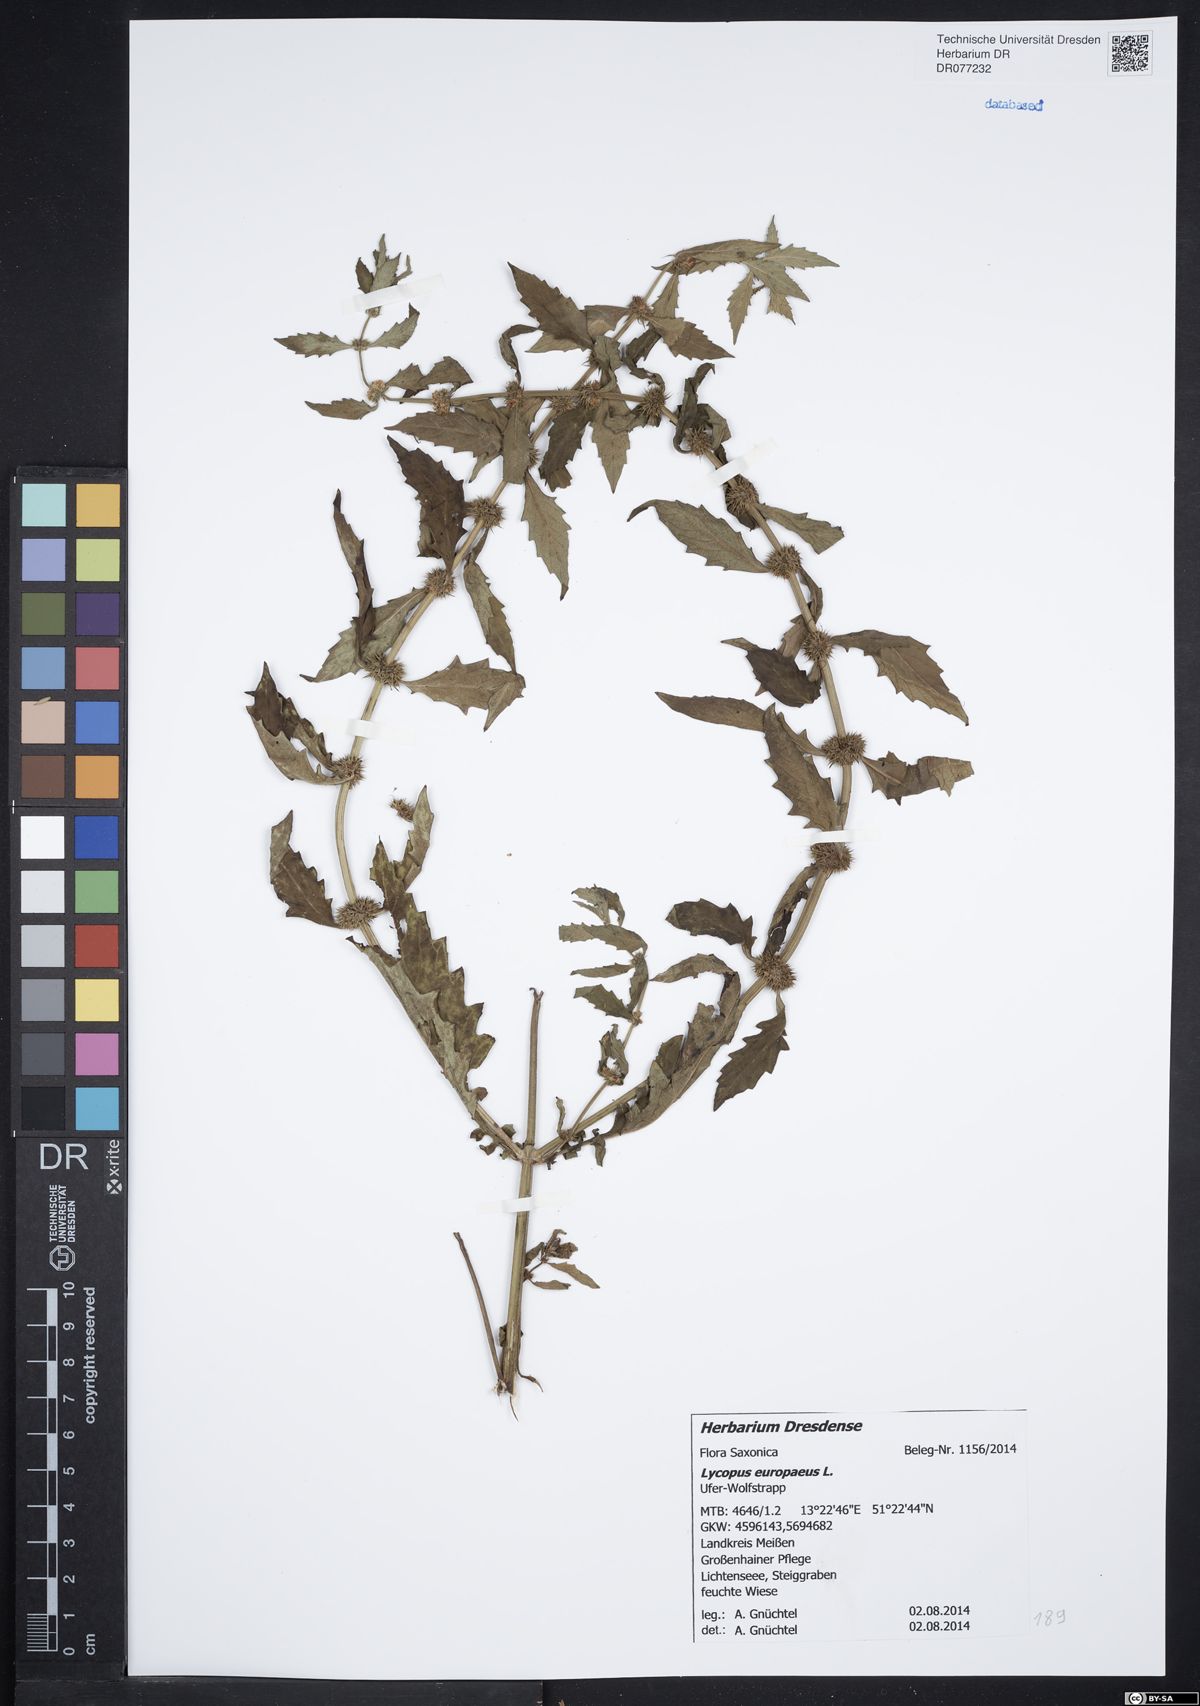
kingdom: Plantae
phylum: Tracheophyta
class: Magnoliopsida
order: Lamiales
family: Lamiaceae
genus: Lycopus
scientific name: Lycopus europaeus
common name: European bugleweed
